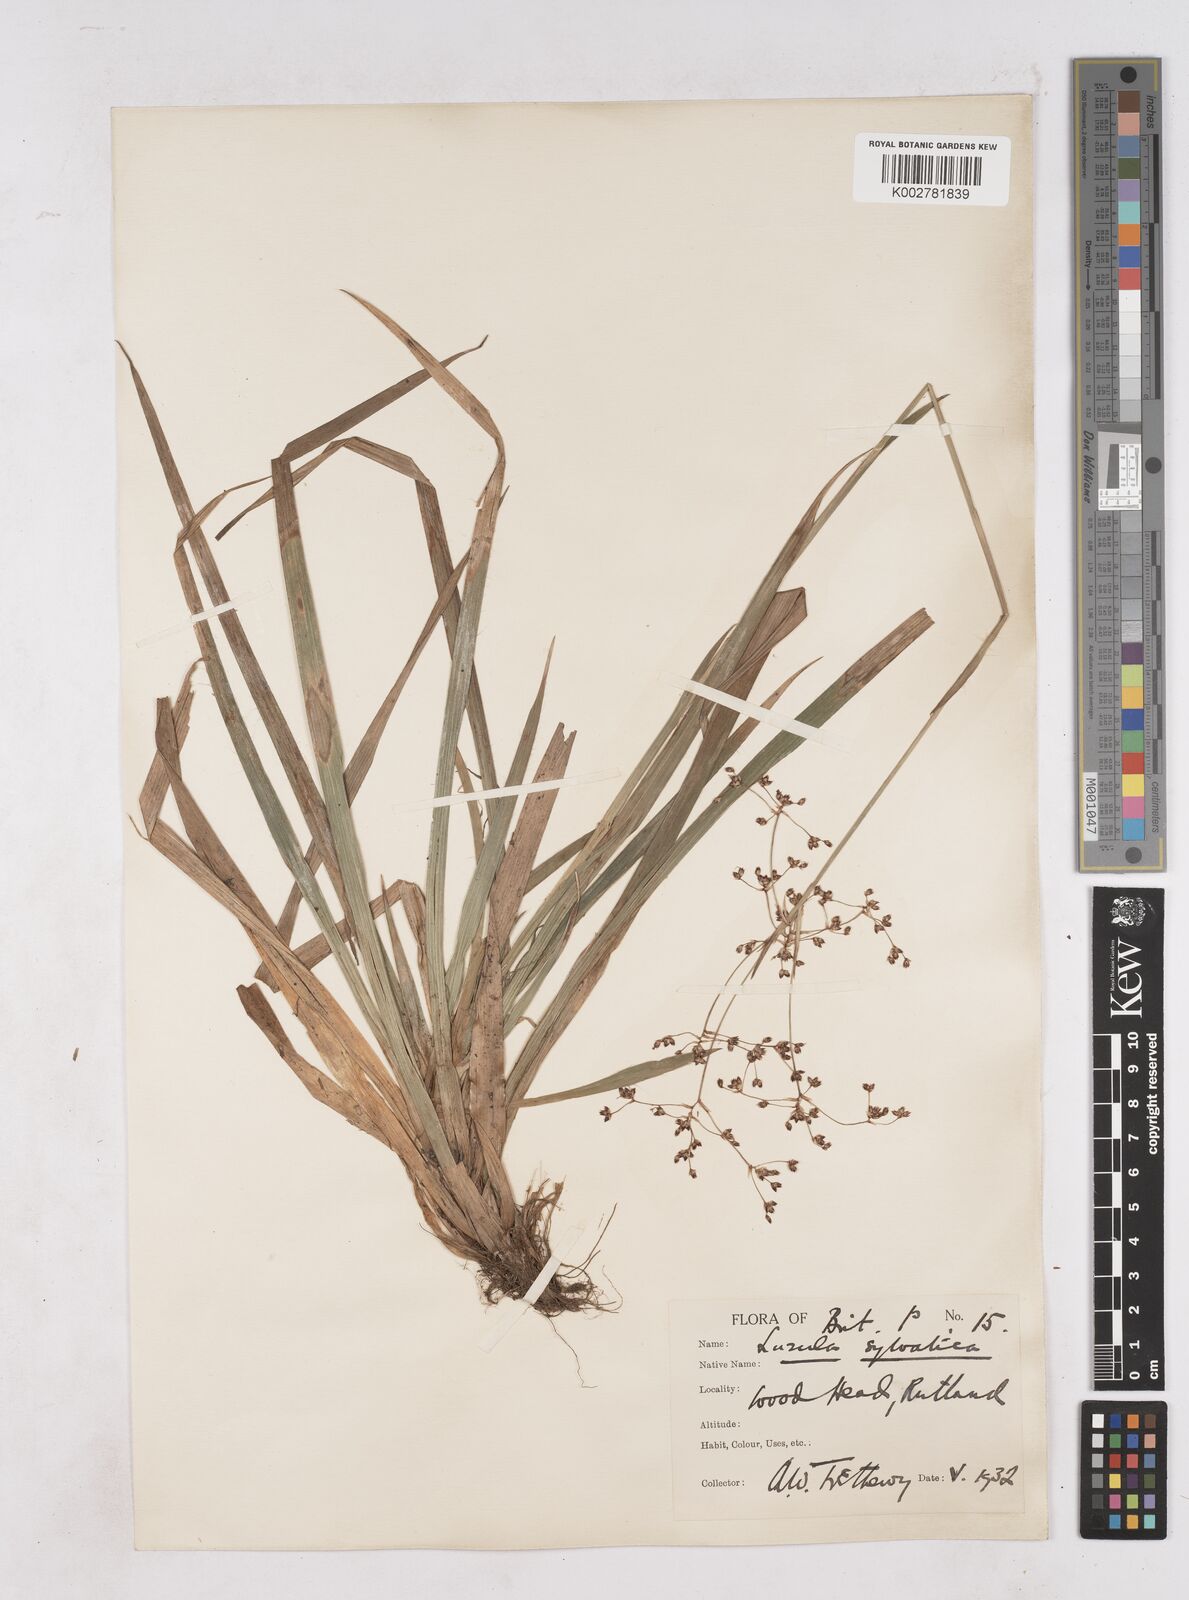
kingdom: Plantae
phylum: Tracheophyta
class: Liliopsida
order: Poales
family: Juncaceae
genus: Luzula
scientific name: Luzula sylvatica
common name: Great wood-rush
